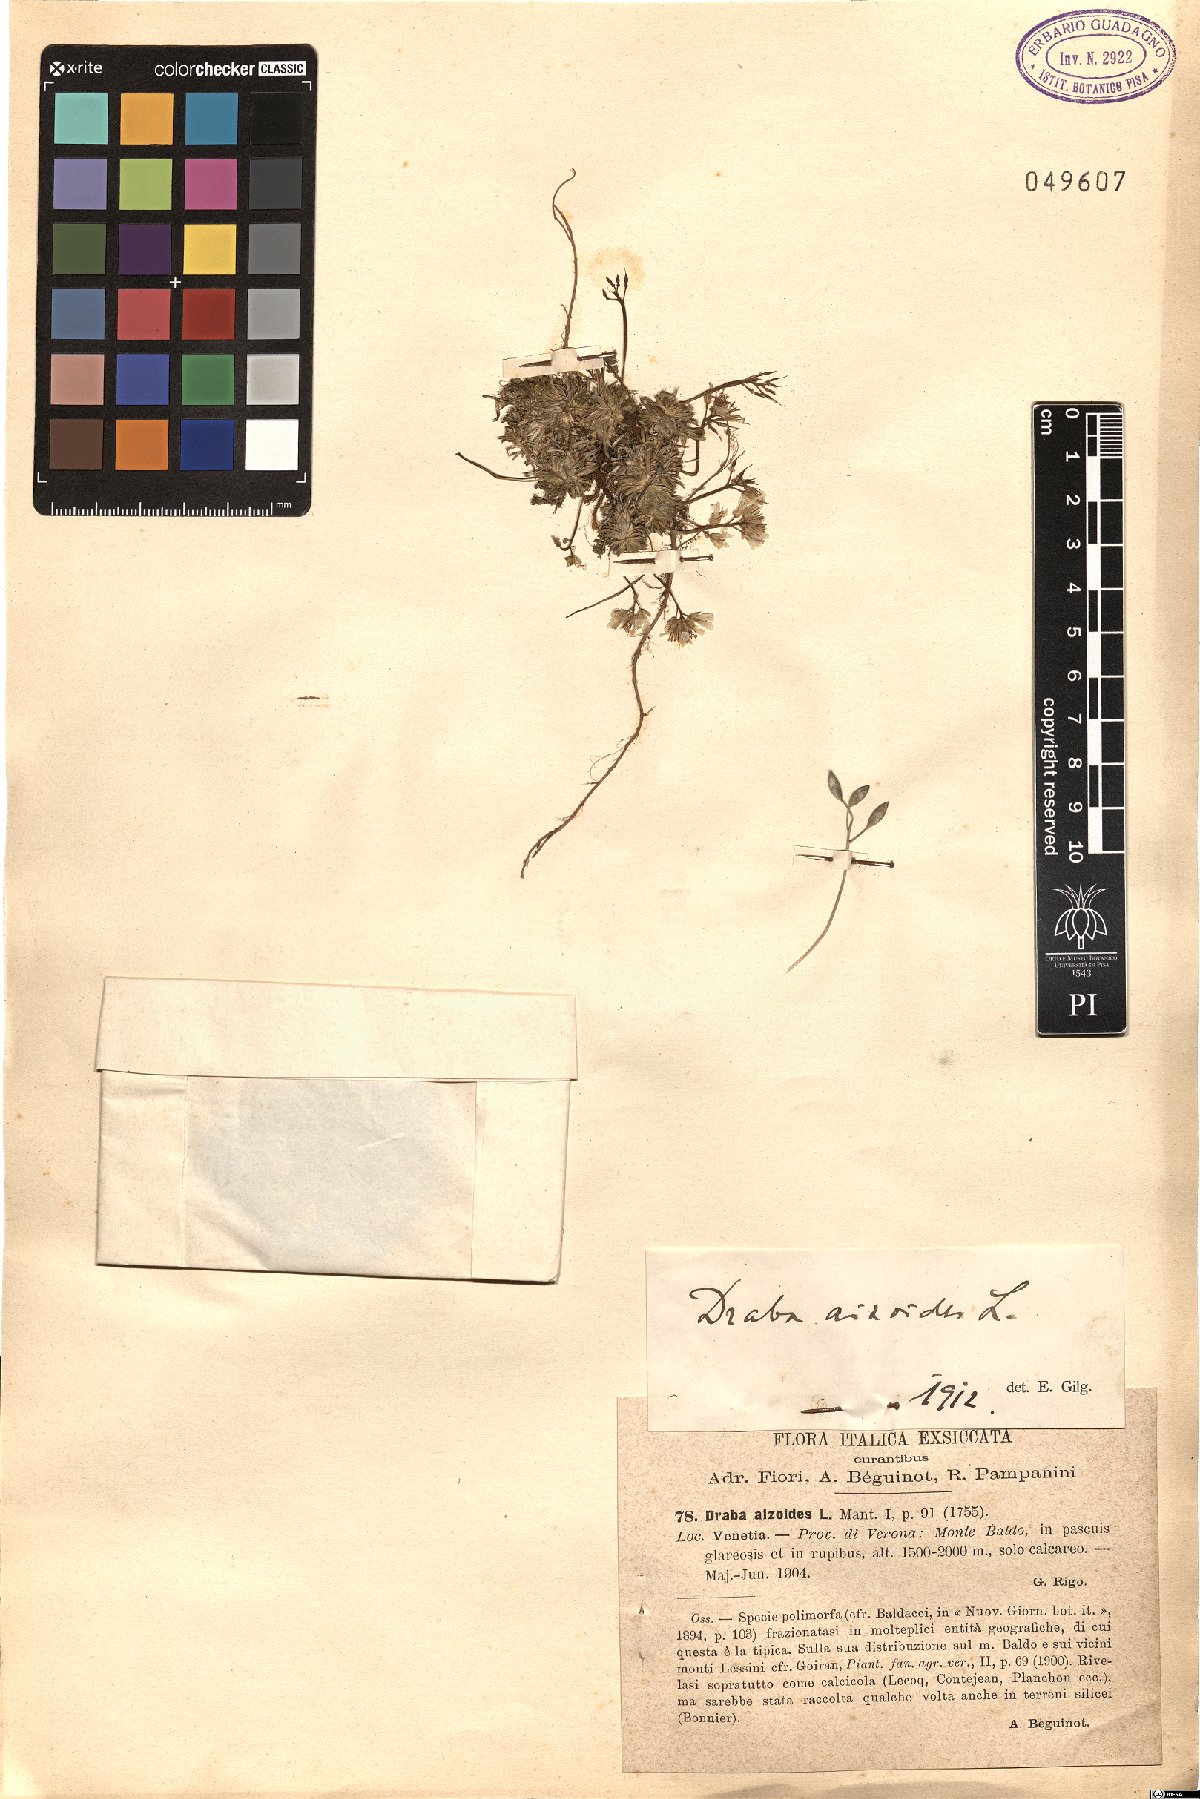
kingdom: Plantae
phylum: Tracheophyta
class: Magnoliopsida
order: Brassicales
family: Brassicaceae
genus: Draba
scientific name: Draba aizoides
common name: Yellow whitlowgrass
